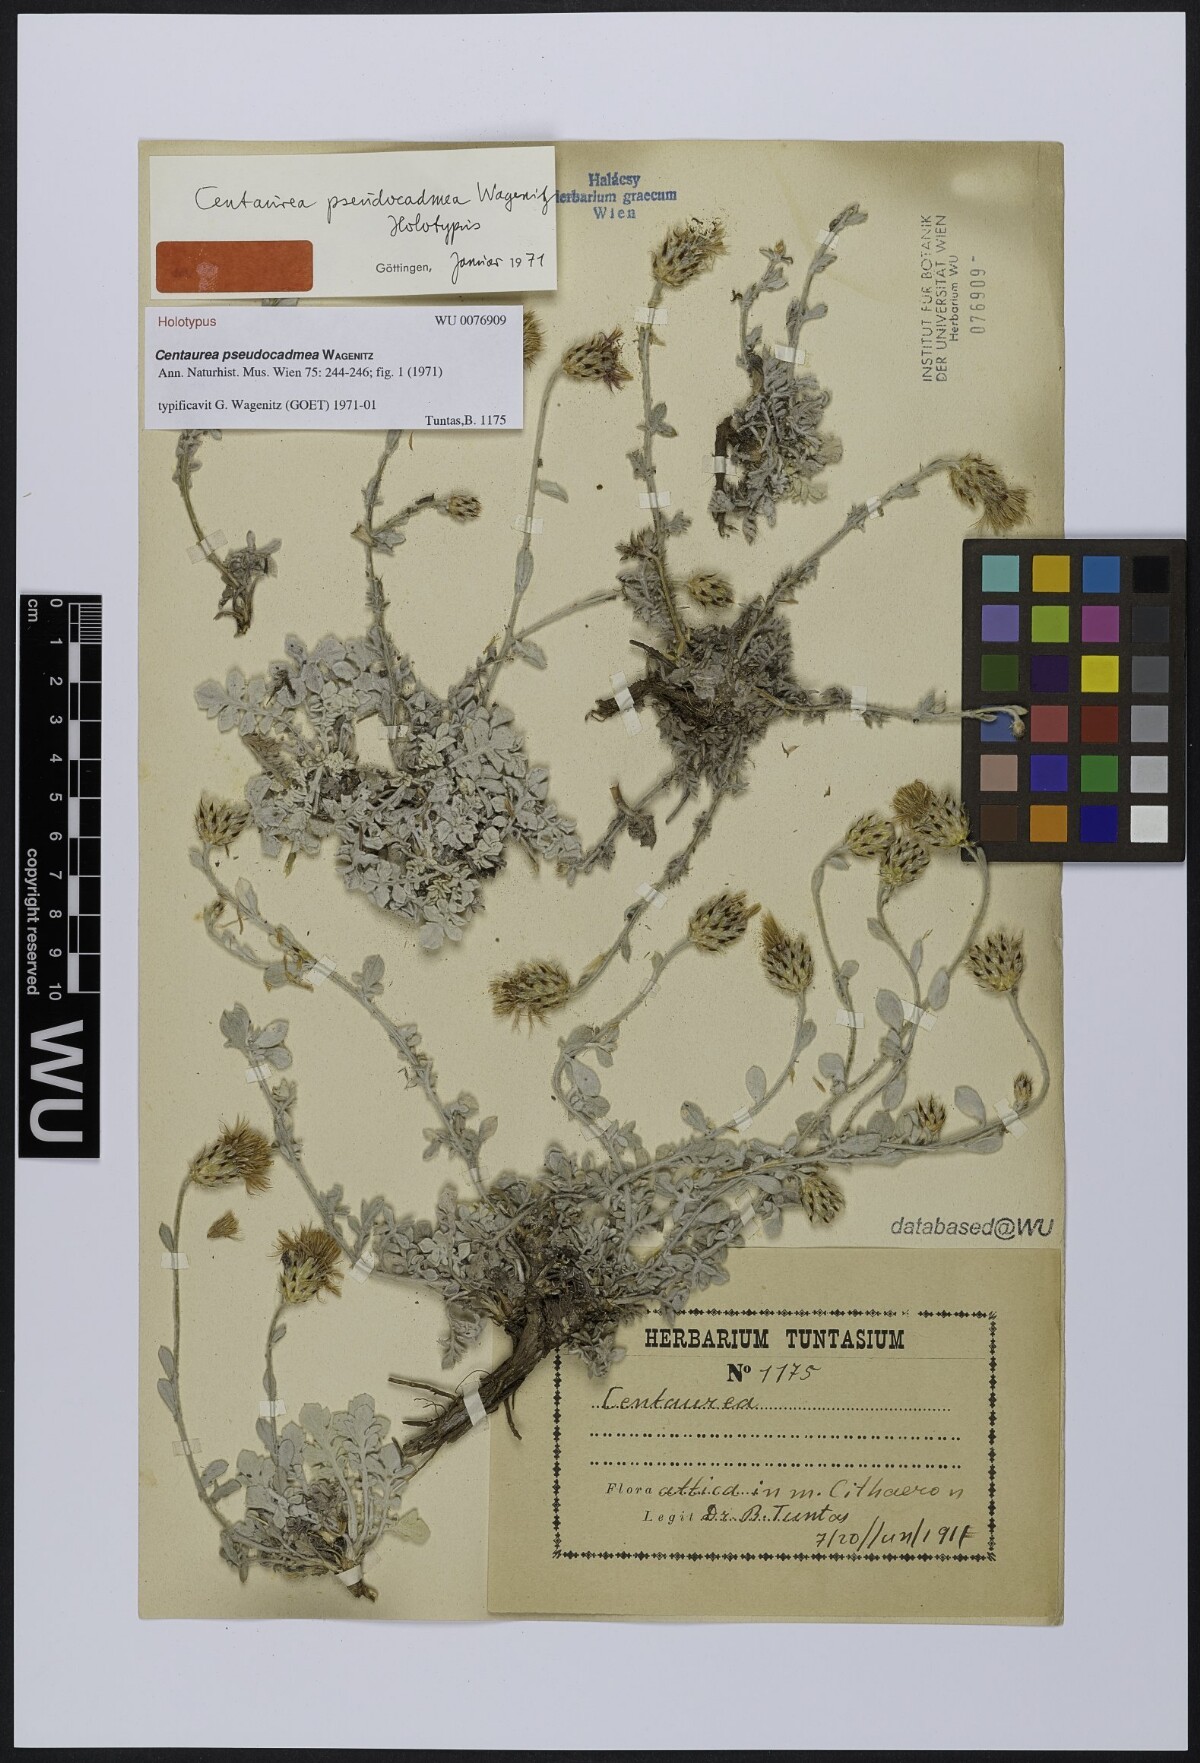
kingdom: Plantae
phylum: Tracheophyta
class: Magnoliopsida
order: Asterales
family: Asteraceae
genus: Centaurea
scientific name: Centaurea pseudocadmea
